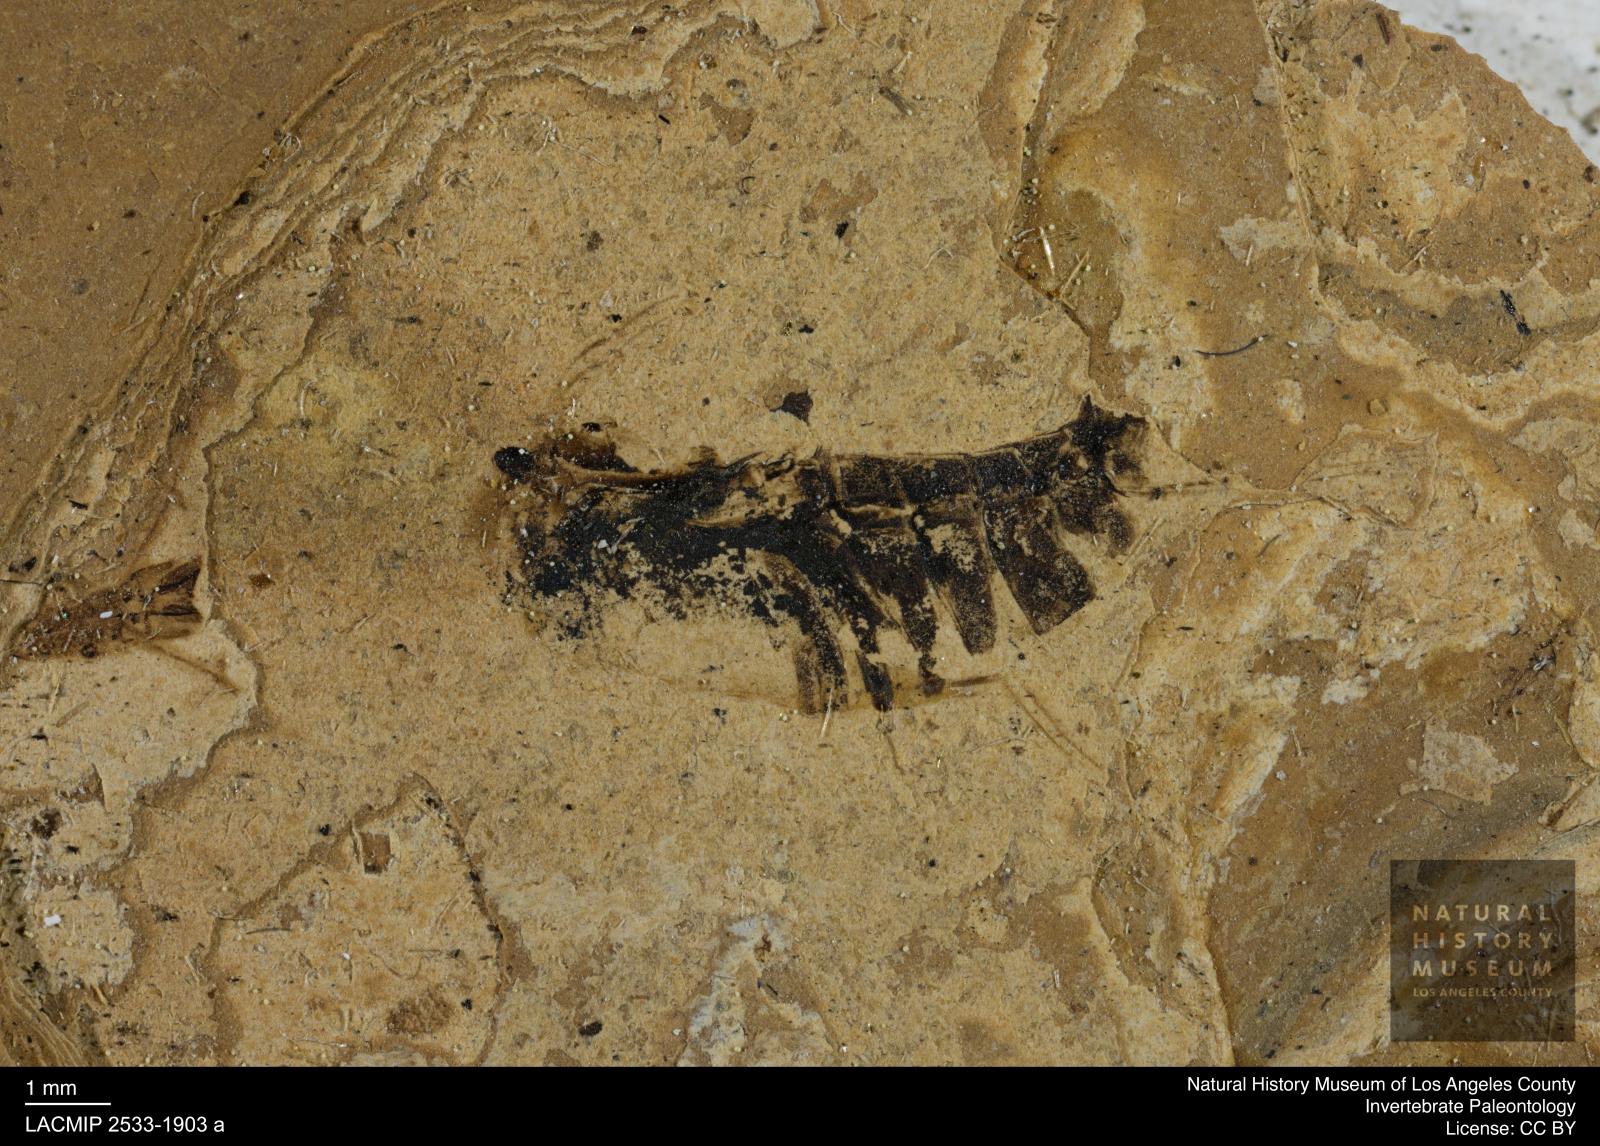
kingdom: Animalia
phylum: Arthropoda
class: Insecta
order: Hemiptera
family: Notonectidae
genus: Anisops
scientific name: Anisops Notonecta deichmuelleri
